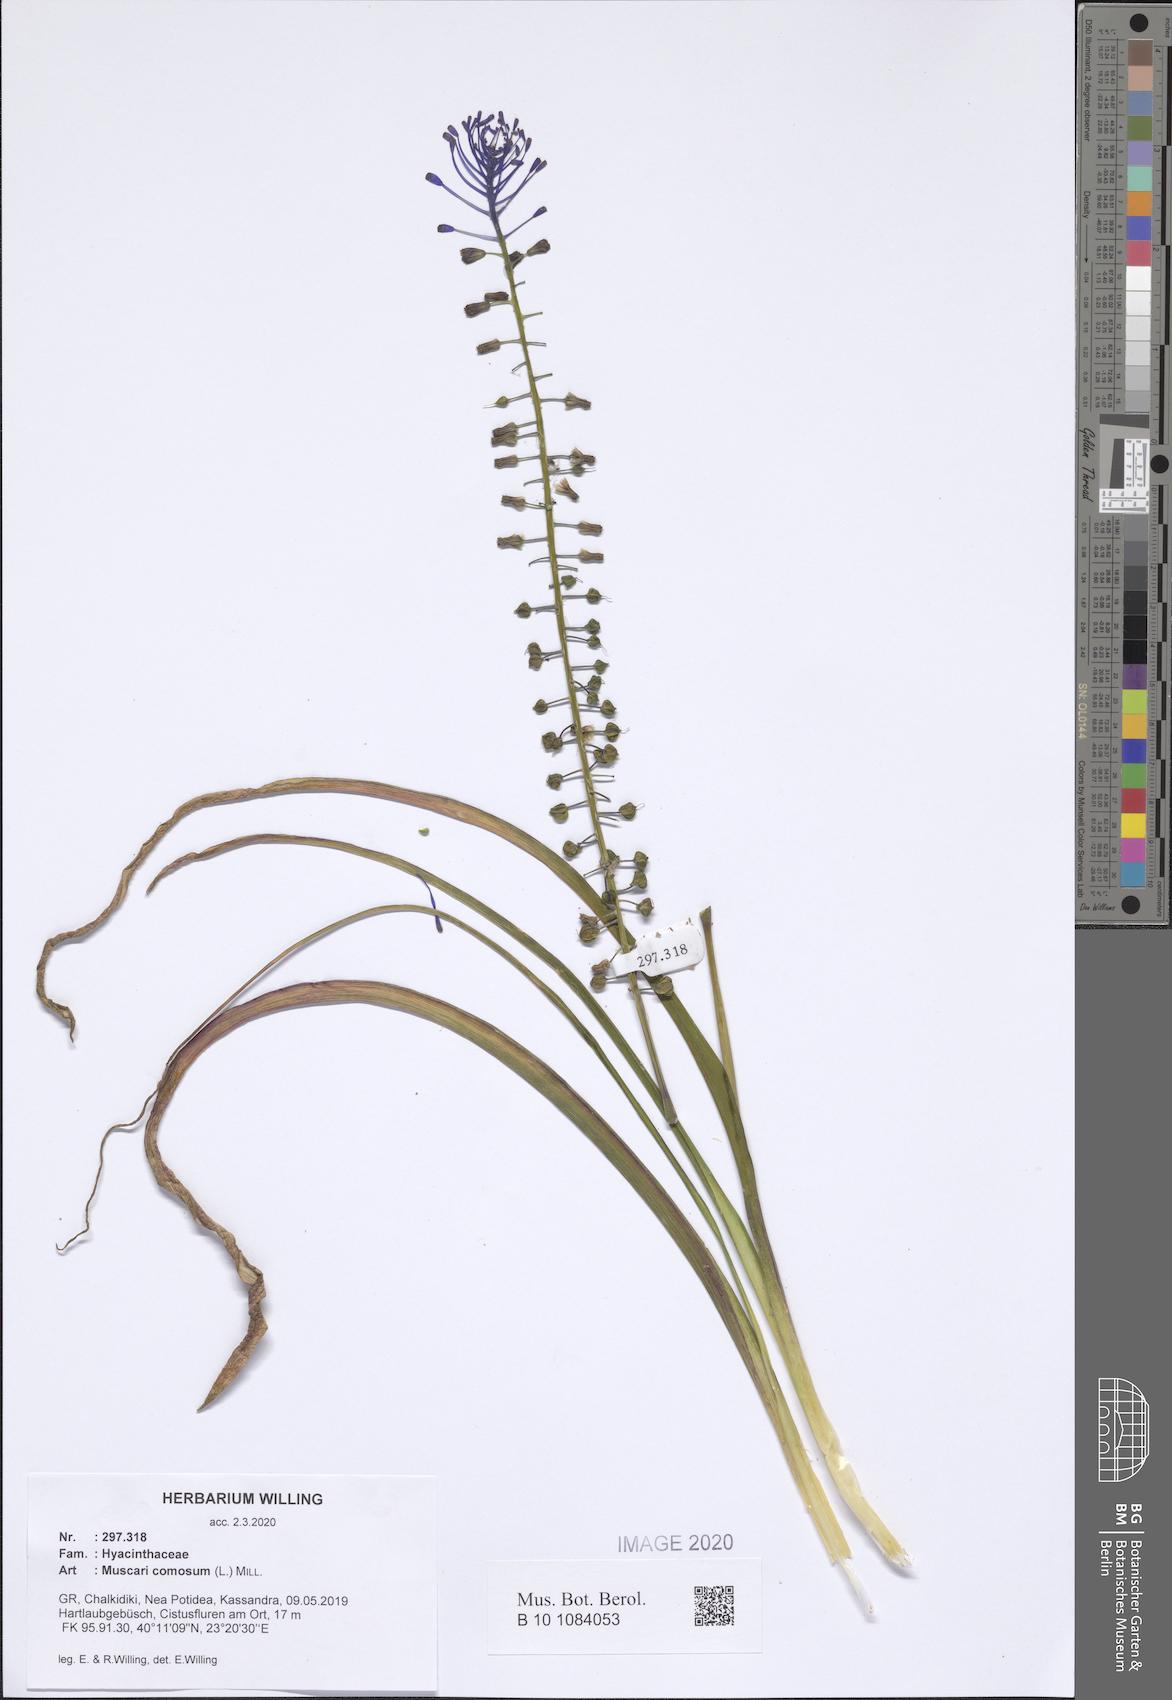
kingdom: Plantae
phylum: Tracheophyta
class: Liliopsida
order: Asparagales
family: Asparagaceae
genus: Muscari
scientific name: Muscari comosum
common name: Tassel hyacinth
